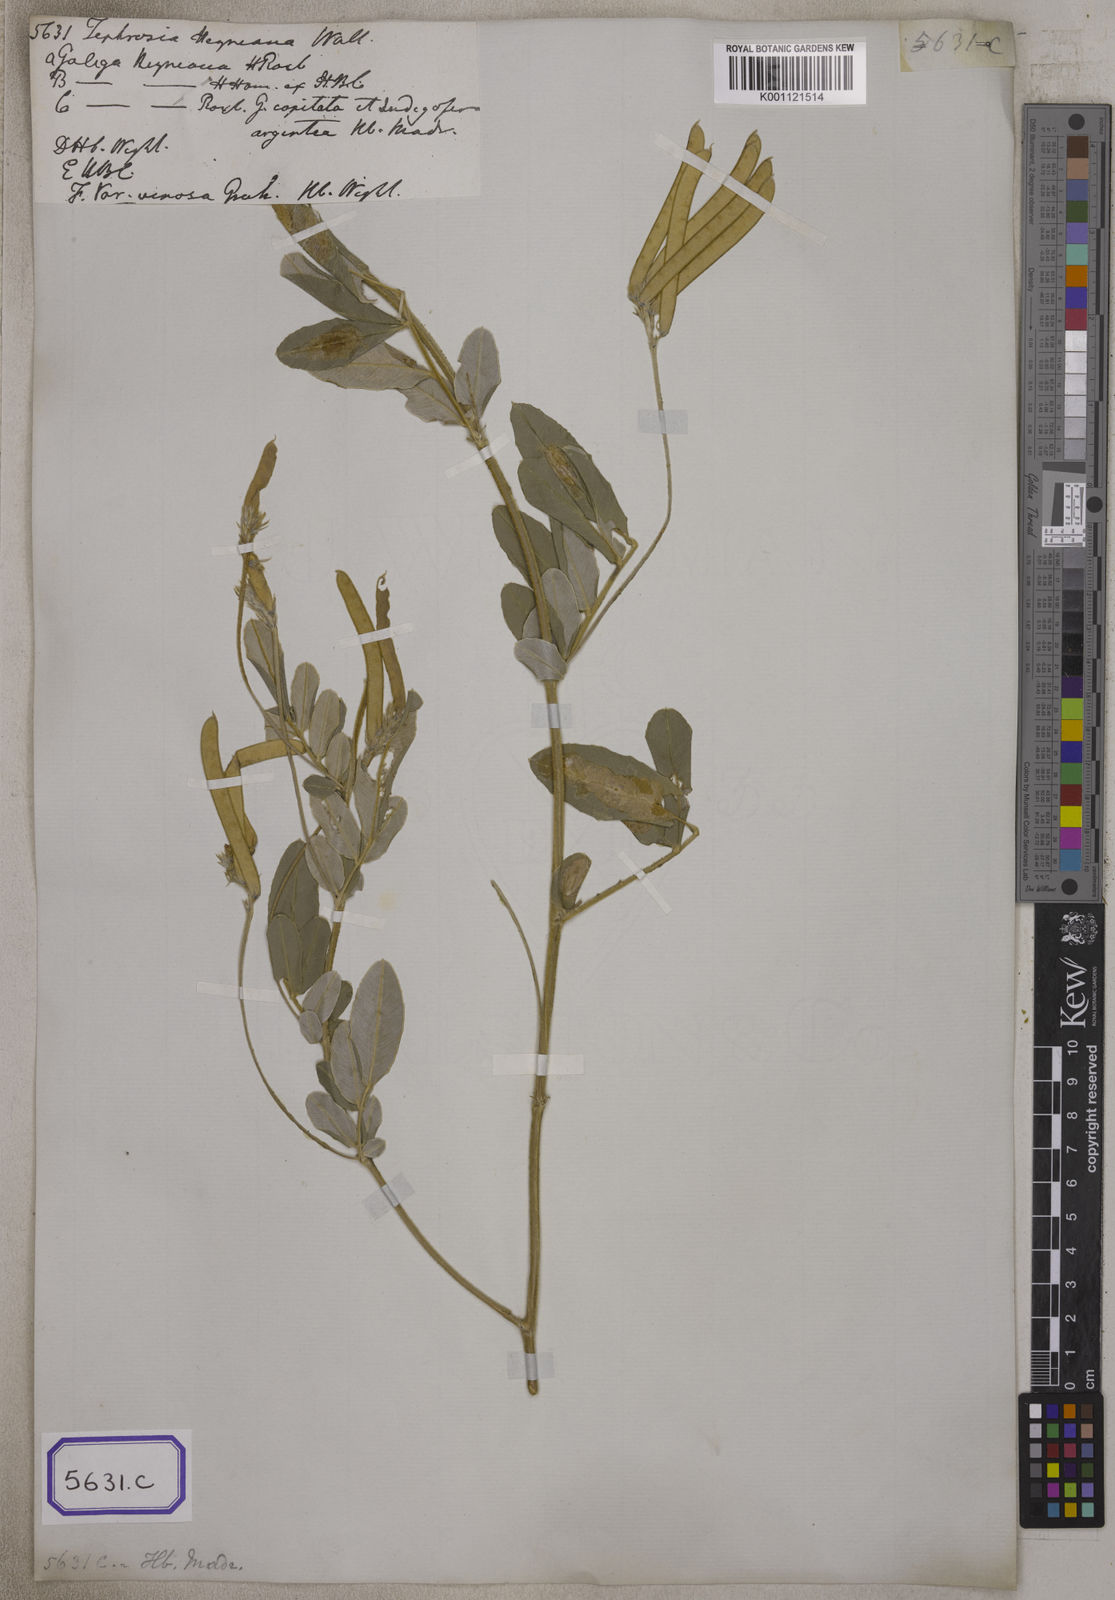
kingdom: Plantae
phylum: Tracheophyta
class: Magnoliopsida
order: Fabales
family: Fabaceae
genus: Tephrosia
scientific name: Tephrosia
